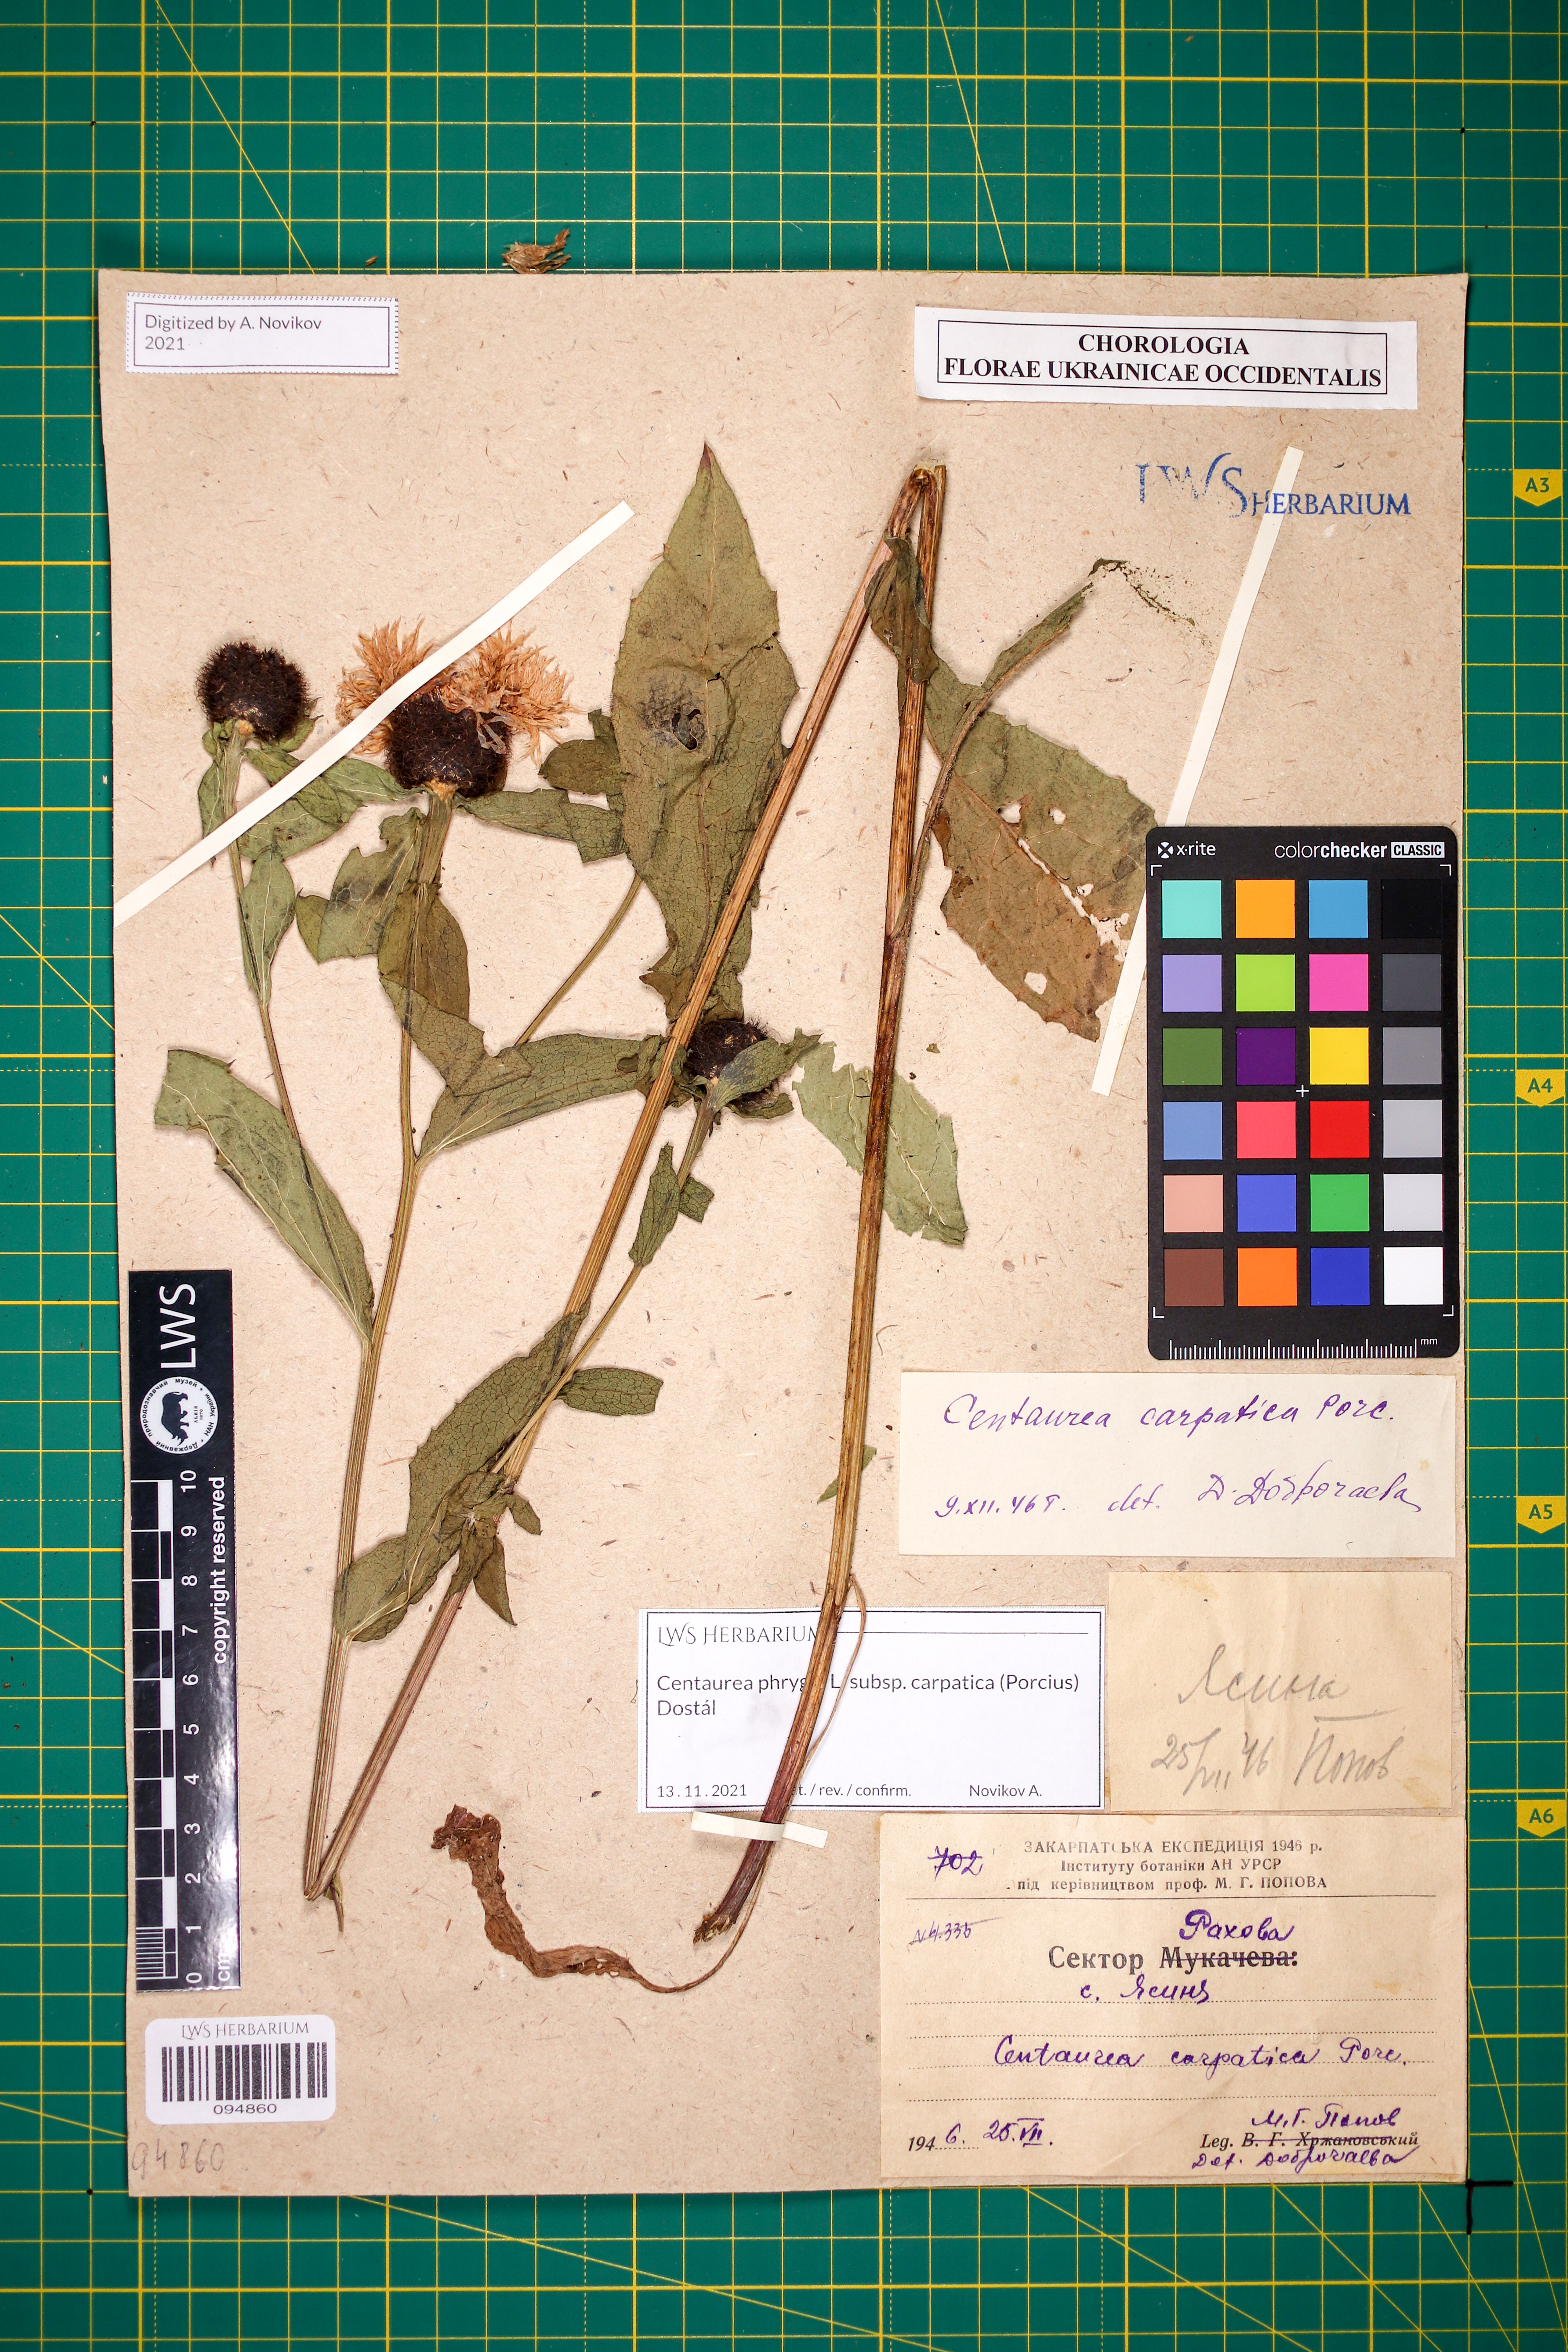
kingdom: Plantae
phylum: Tracheophyta
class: Magnoliopsida
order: Asterales
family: Asteraceae
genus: Centaurea
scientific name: Centaurea phrygia
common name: Wig knapweed
